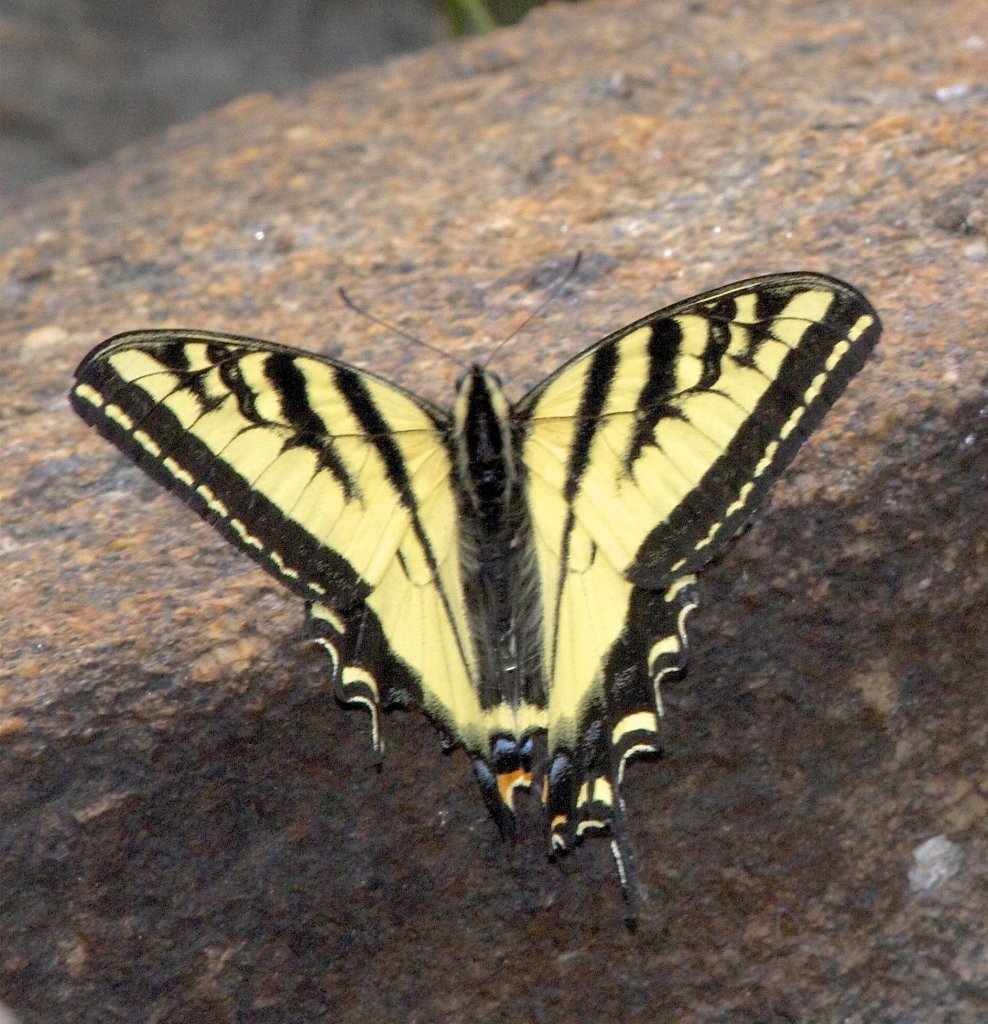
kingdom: Animalia
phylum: Arthropoda
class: Insecta
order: Lepidoptera
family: Papilionidae
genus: Pterourus
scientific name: Pterourus rutulus
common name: Western Tiger Swallowtail
